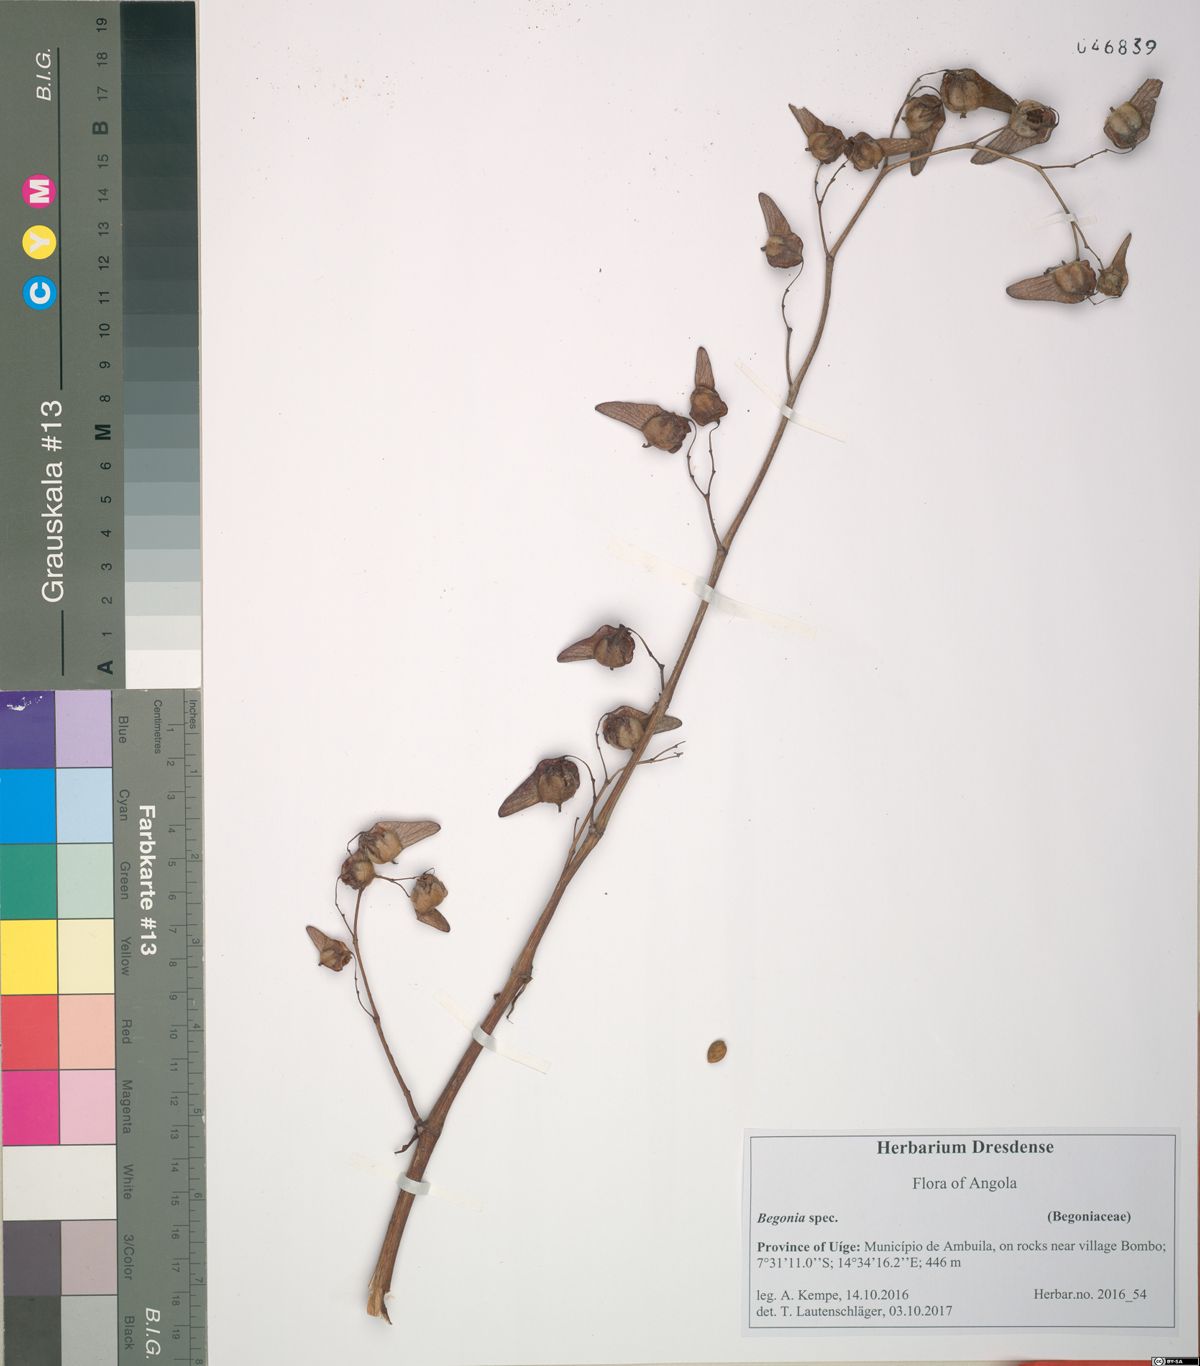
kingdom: Plantae
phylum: Tracheophyta
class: Magnoliopsida
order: Cucurbitales
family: Begoniaceae
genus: Begonia
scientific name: Begonia
